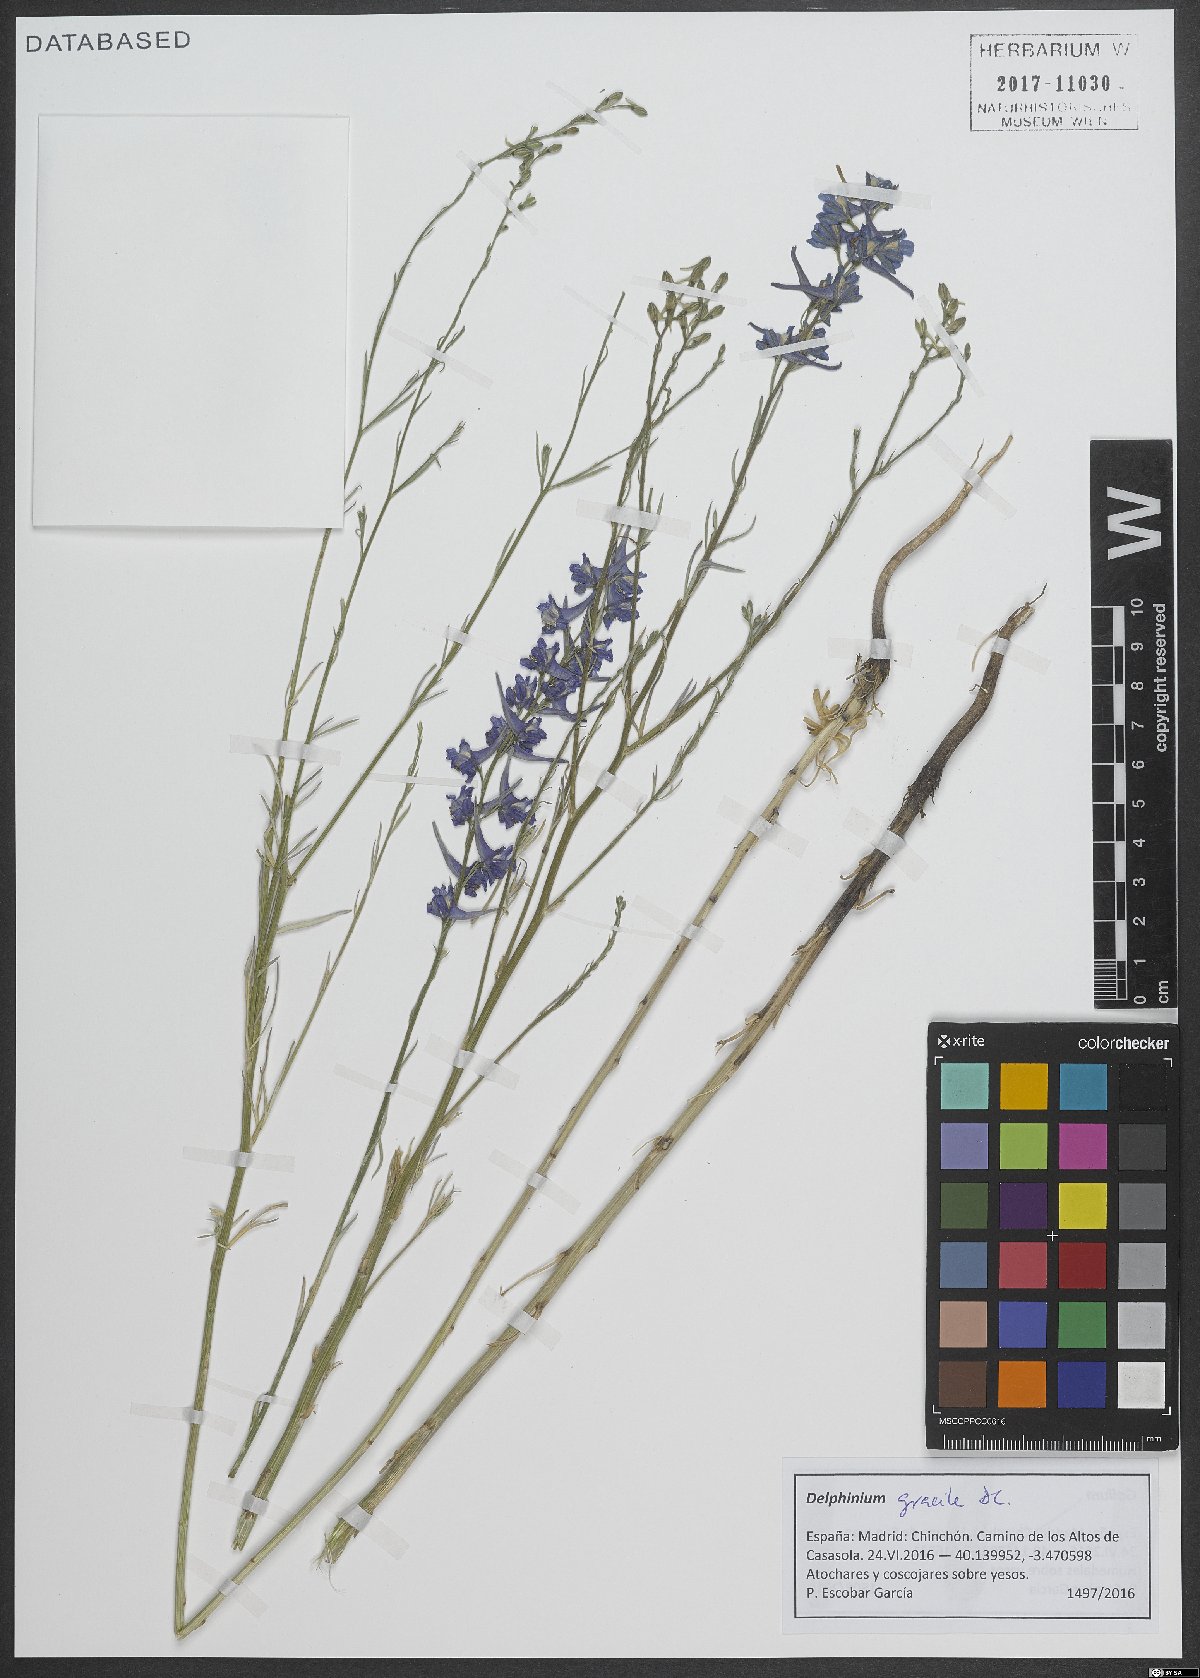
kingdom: Plantae
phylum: Tracheophyta
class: Magnoliopsida
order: Ranunculales
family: Ranunculaceae
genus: Delphinium
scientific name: Delphinium gracile
